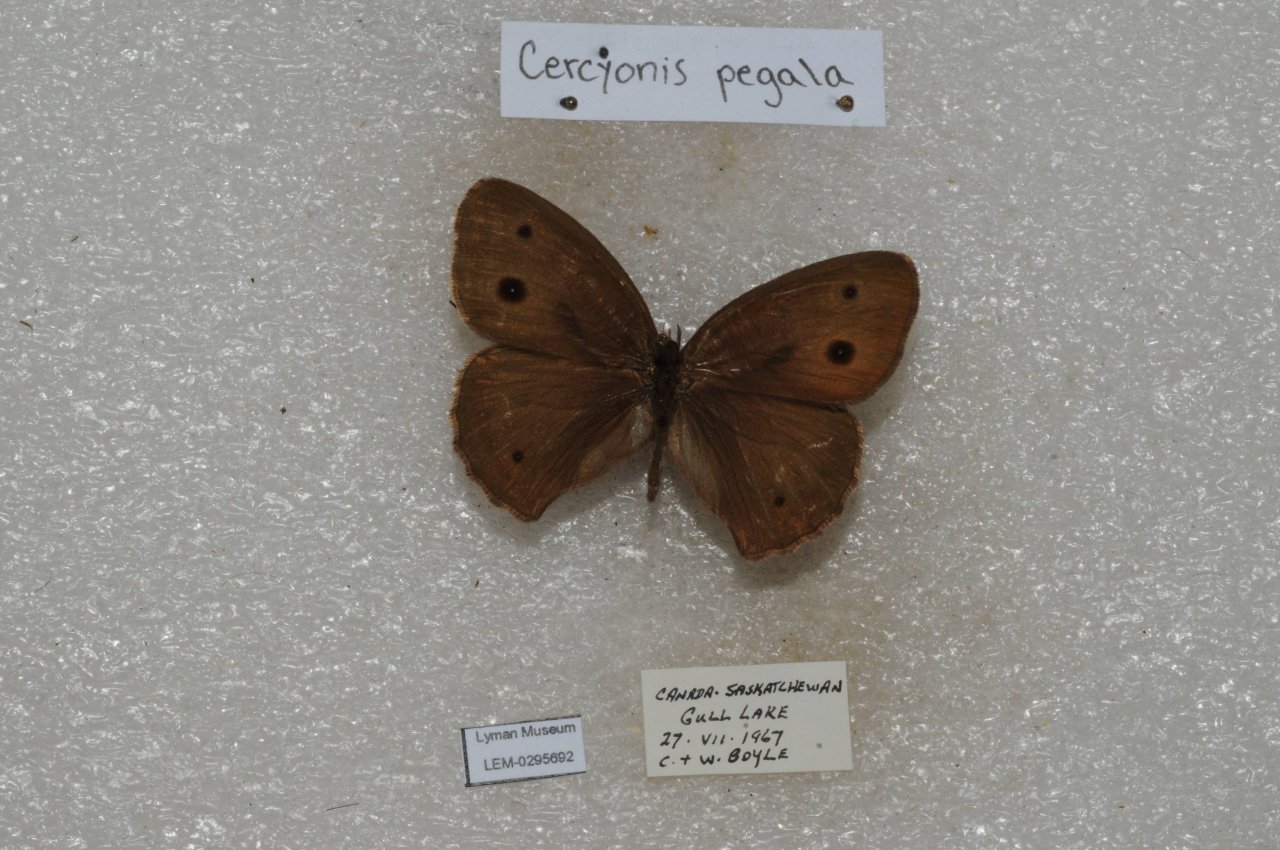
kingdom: Animalia
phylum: Arthropoda
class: Insecta
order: Lepidoptera
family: Nymphalidae
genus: Cercyonis
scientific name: Cercyonis pegala
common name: Common Wood-Nymph
